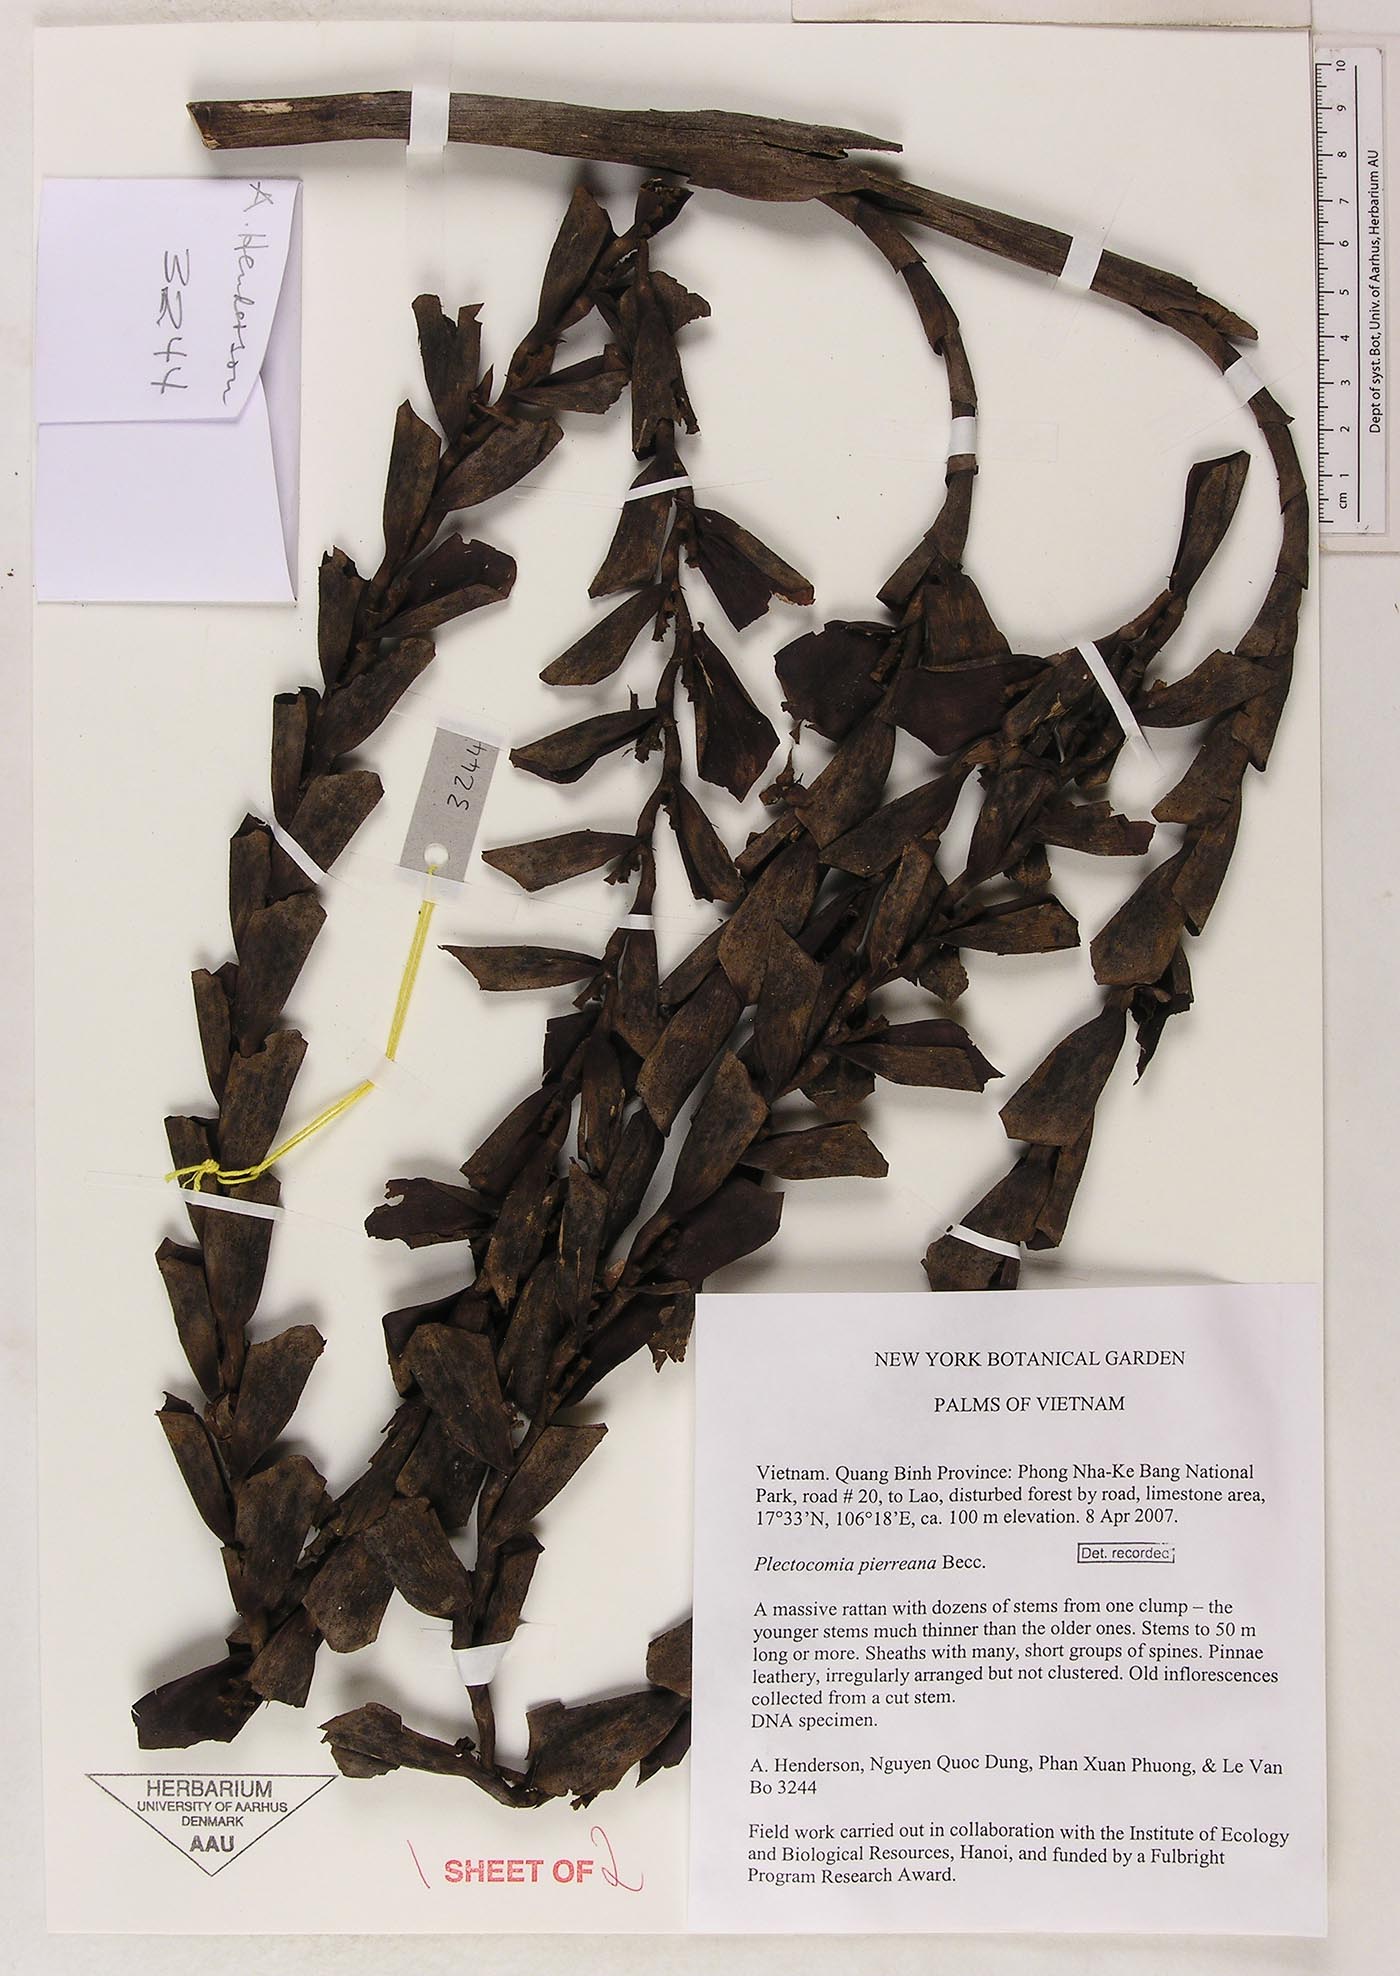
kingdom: Plantae
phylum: Tracheophyta
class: Liliopsida
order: Arecales
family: Arecaceae
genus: Plectocomia
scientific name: Plectocomia pierreana
